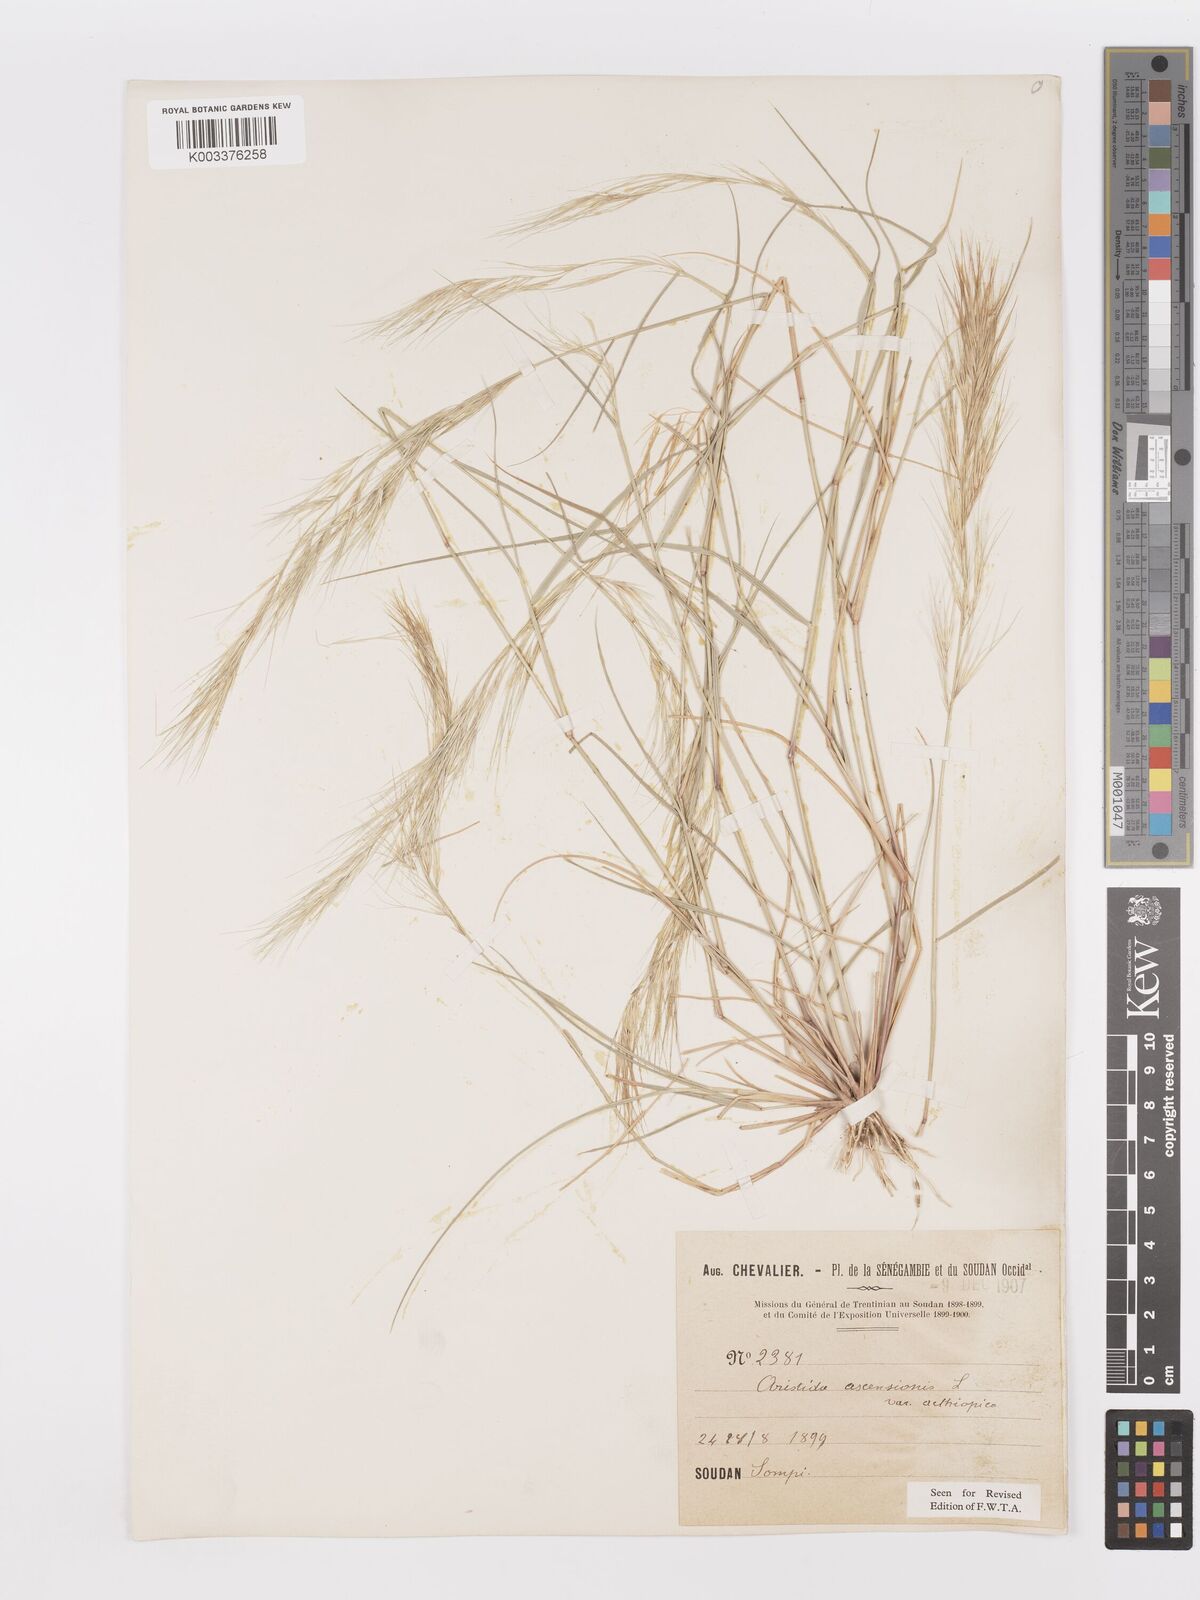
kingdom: Plantae
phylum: Tracheophyta
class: Liliopsida
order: Poales
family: Poaceae
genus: Aristida
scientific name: Aristida adscensionis
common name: Sixweeks threeawn
